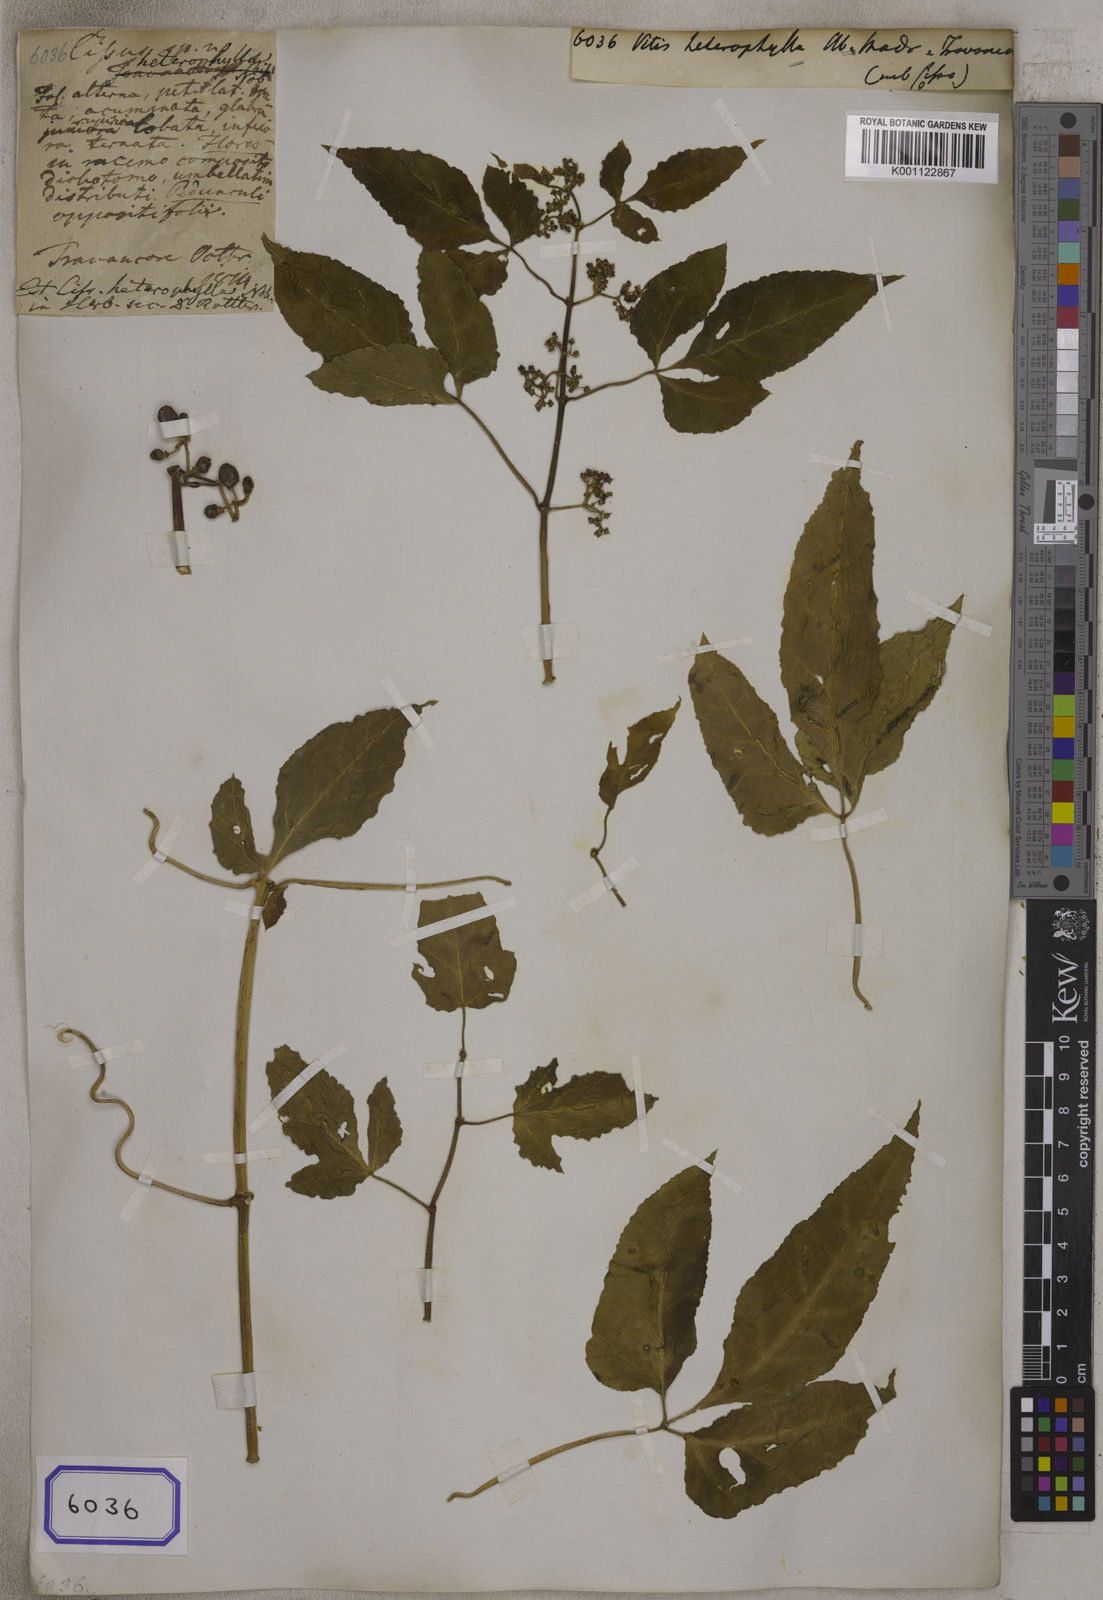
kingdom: Plantae
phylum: Tracheophyta
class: Magnoliopsida
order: Vitales
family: Vitaceae
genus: Cissus
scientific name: Cissus trilobata
